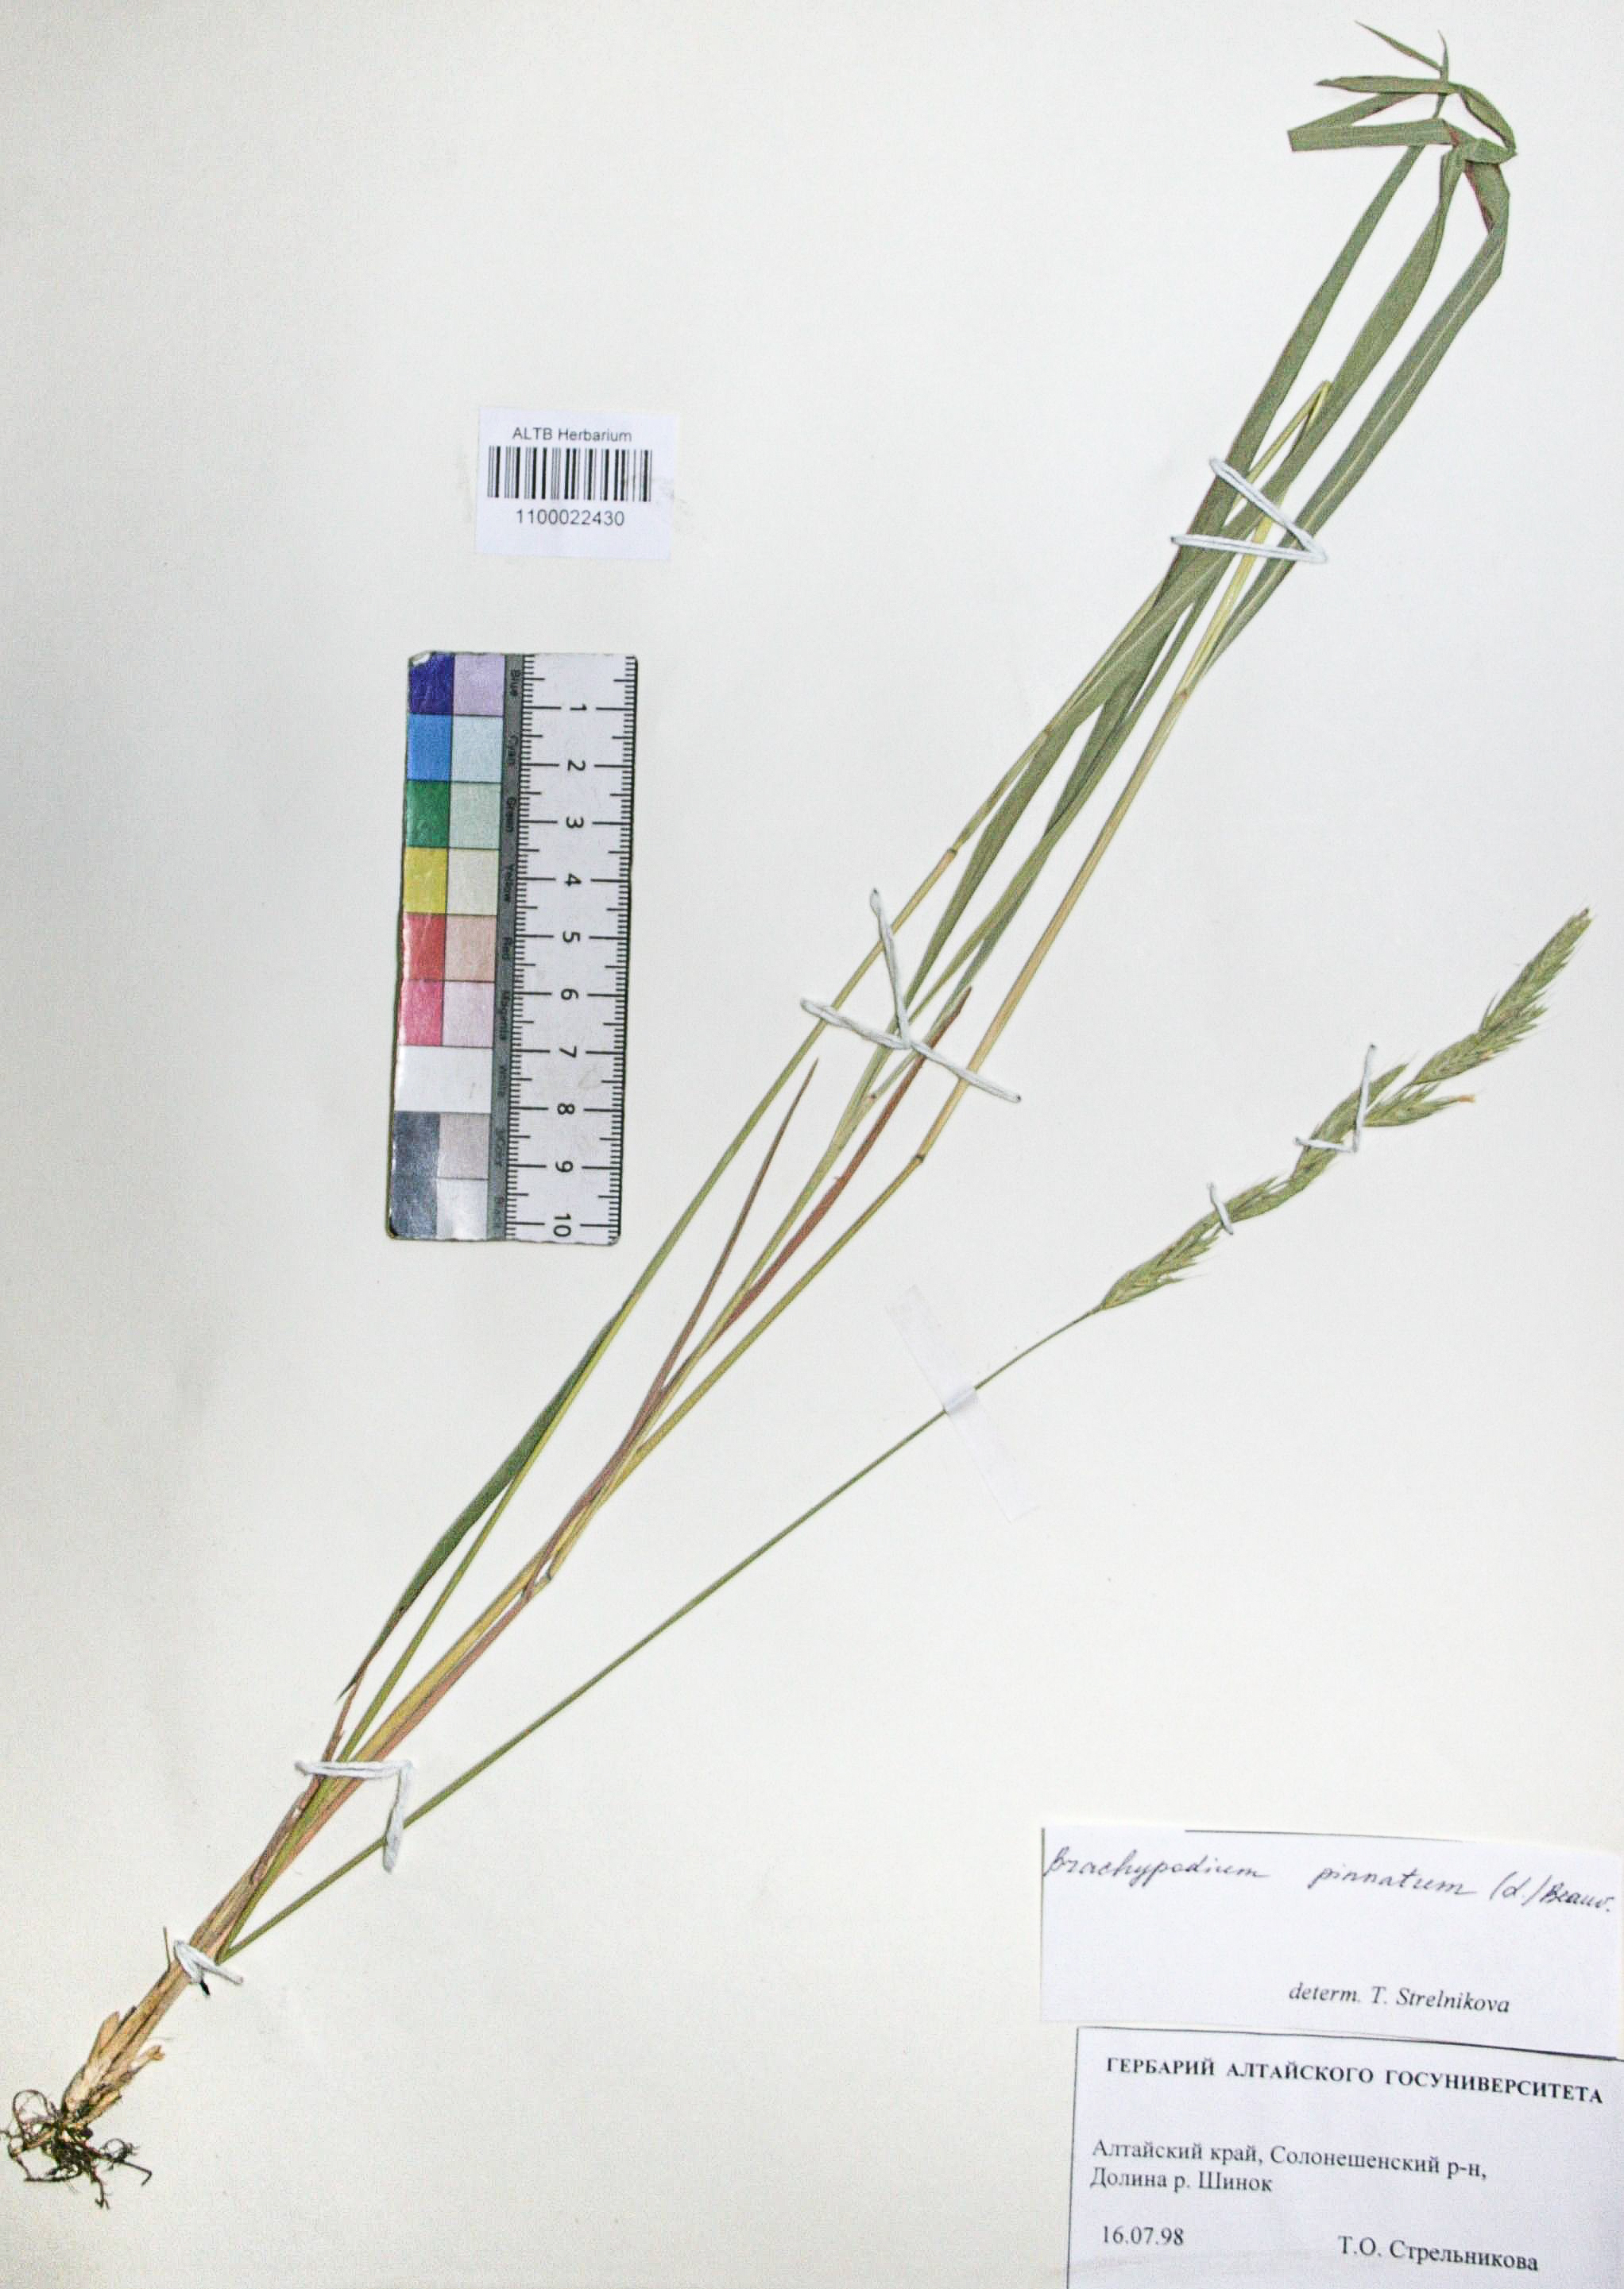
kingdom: Plantae
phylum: Tracheophyta
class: Liliopsida
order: Poales
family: Poaceae
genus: Brachypodium
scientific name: Brachypodium pinnatum
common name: Tor grass
